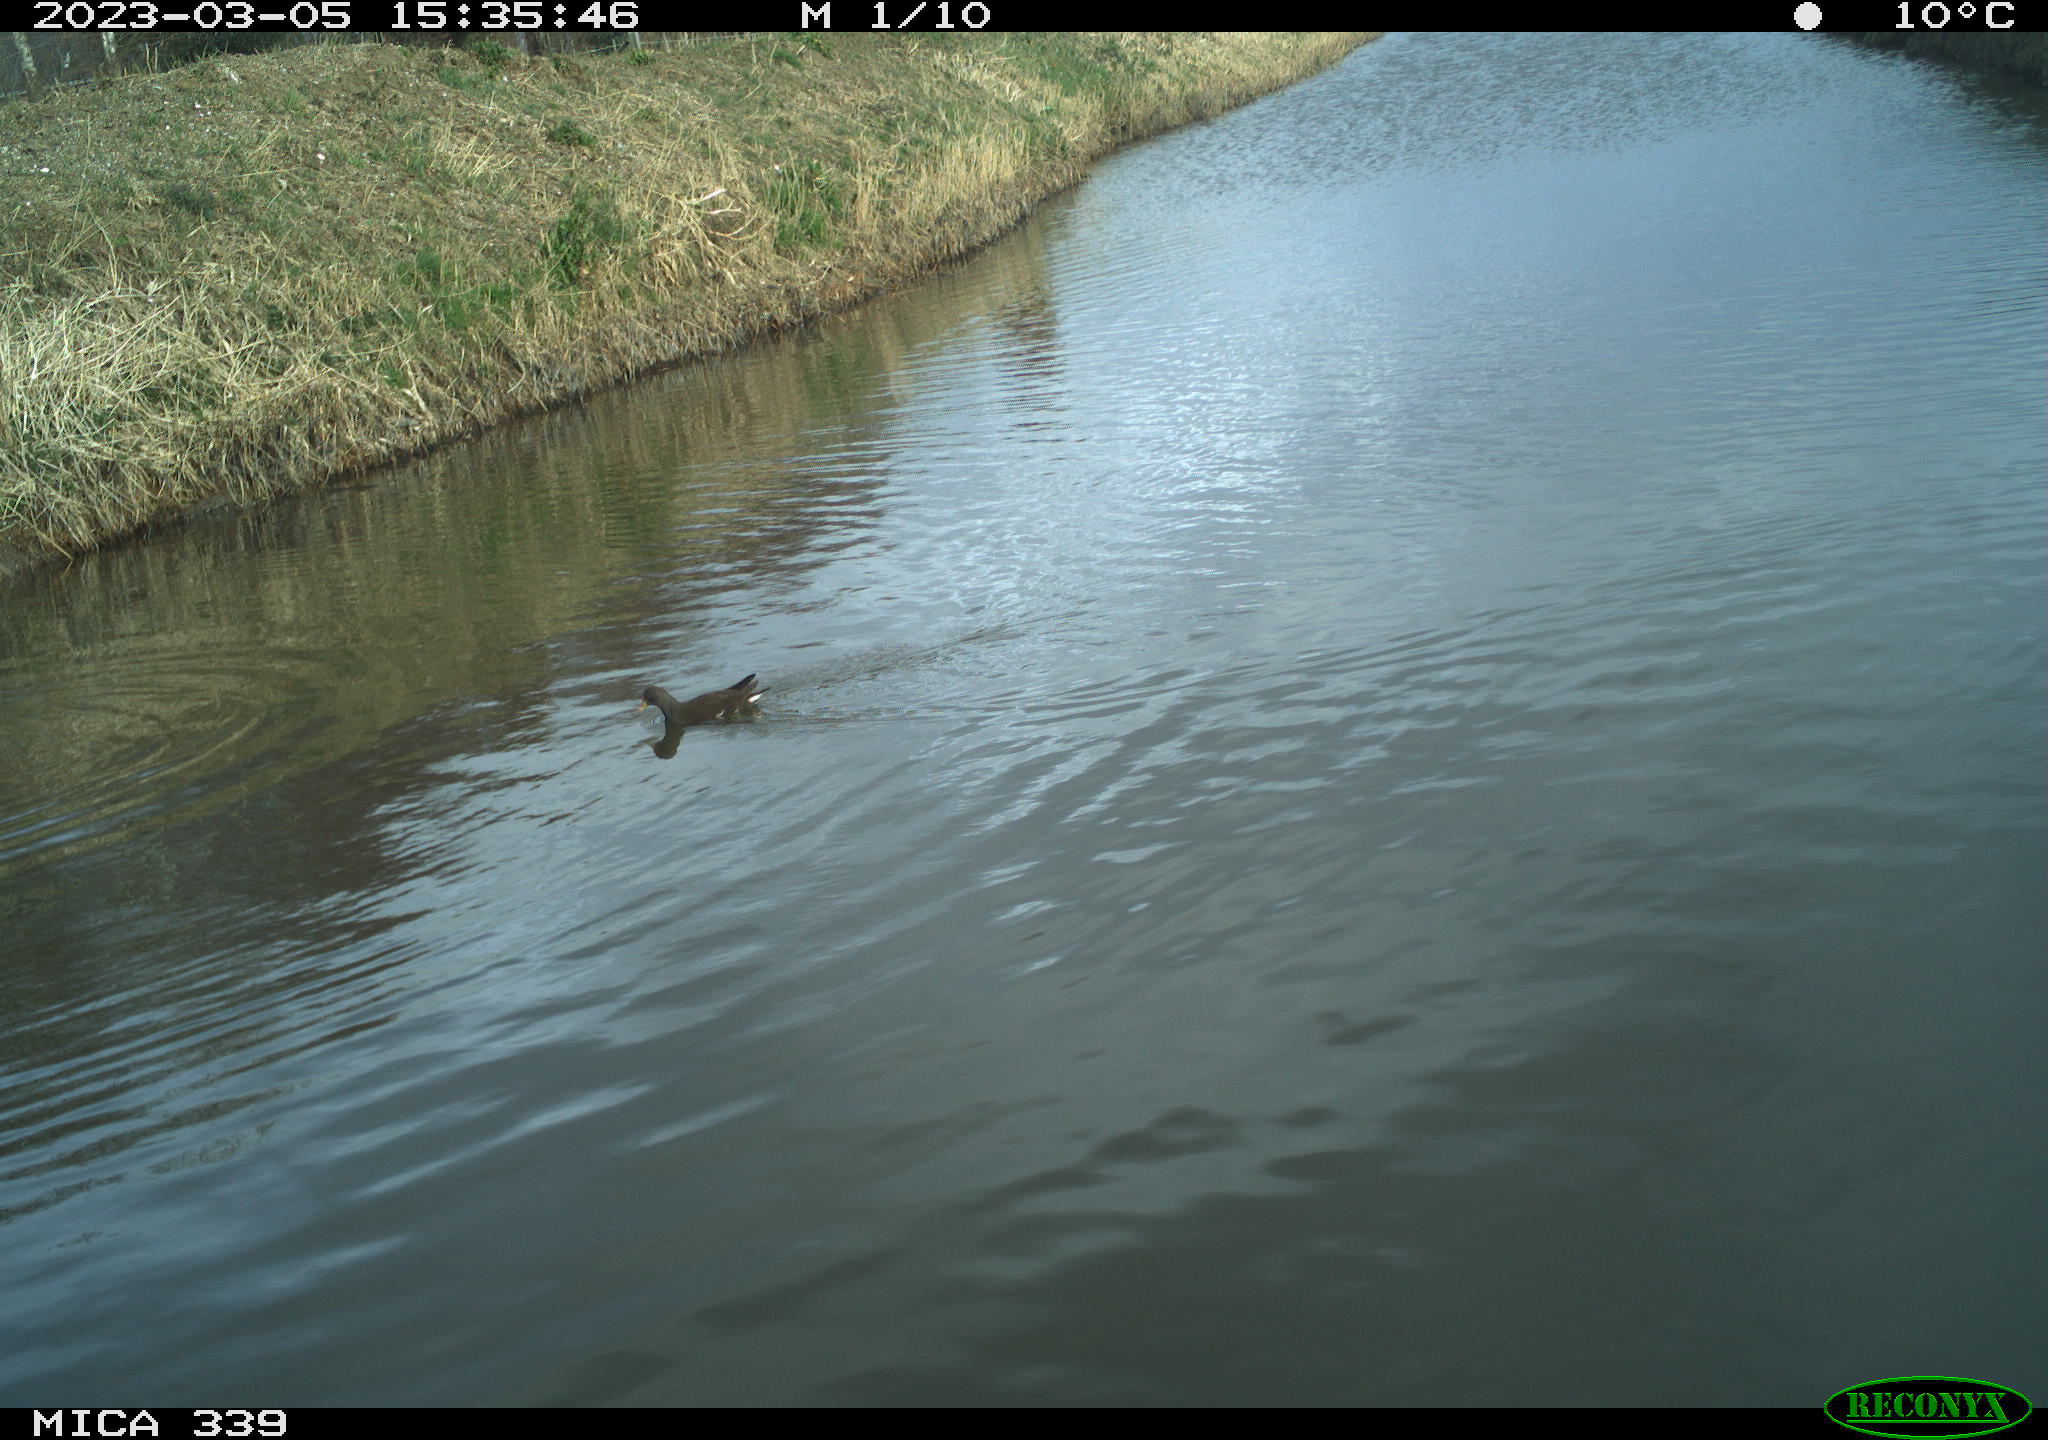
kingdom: Animalia
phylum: Chordata
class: Aves
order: Gruiformes
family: Rallidae
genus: Gallinula
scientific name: Gallinula chloropus
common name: Common moorhen
